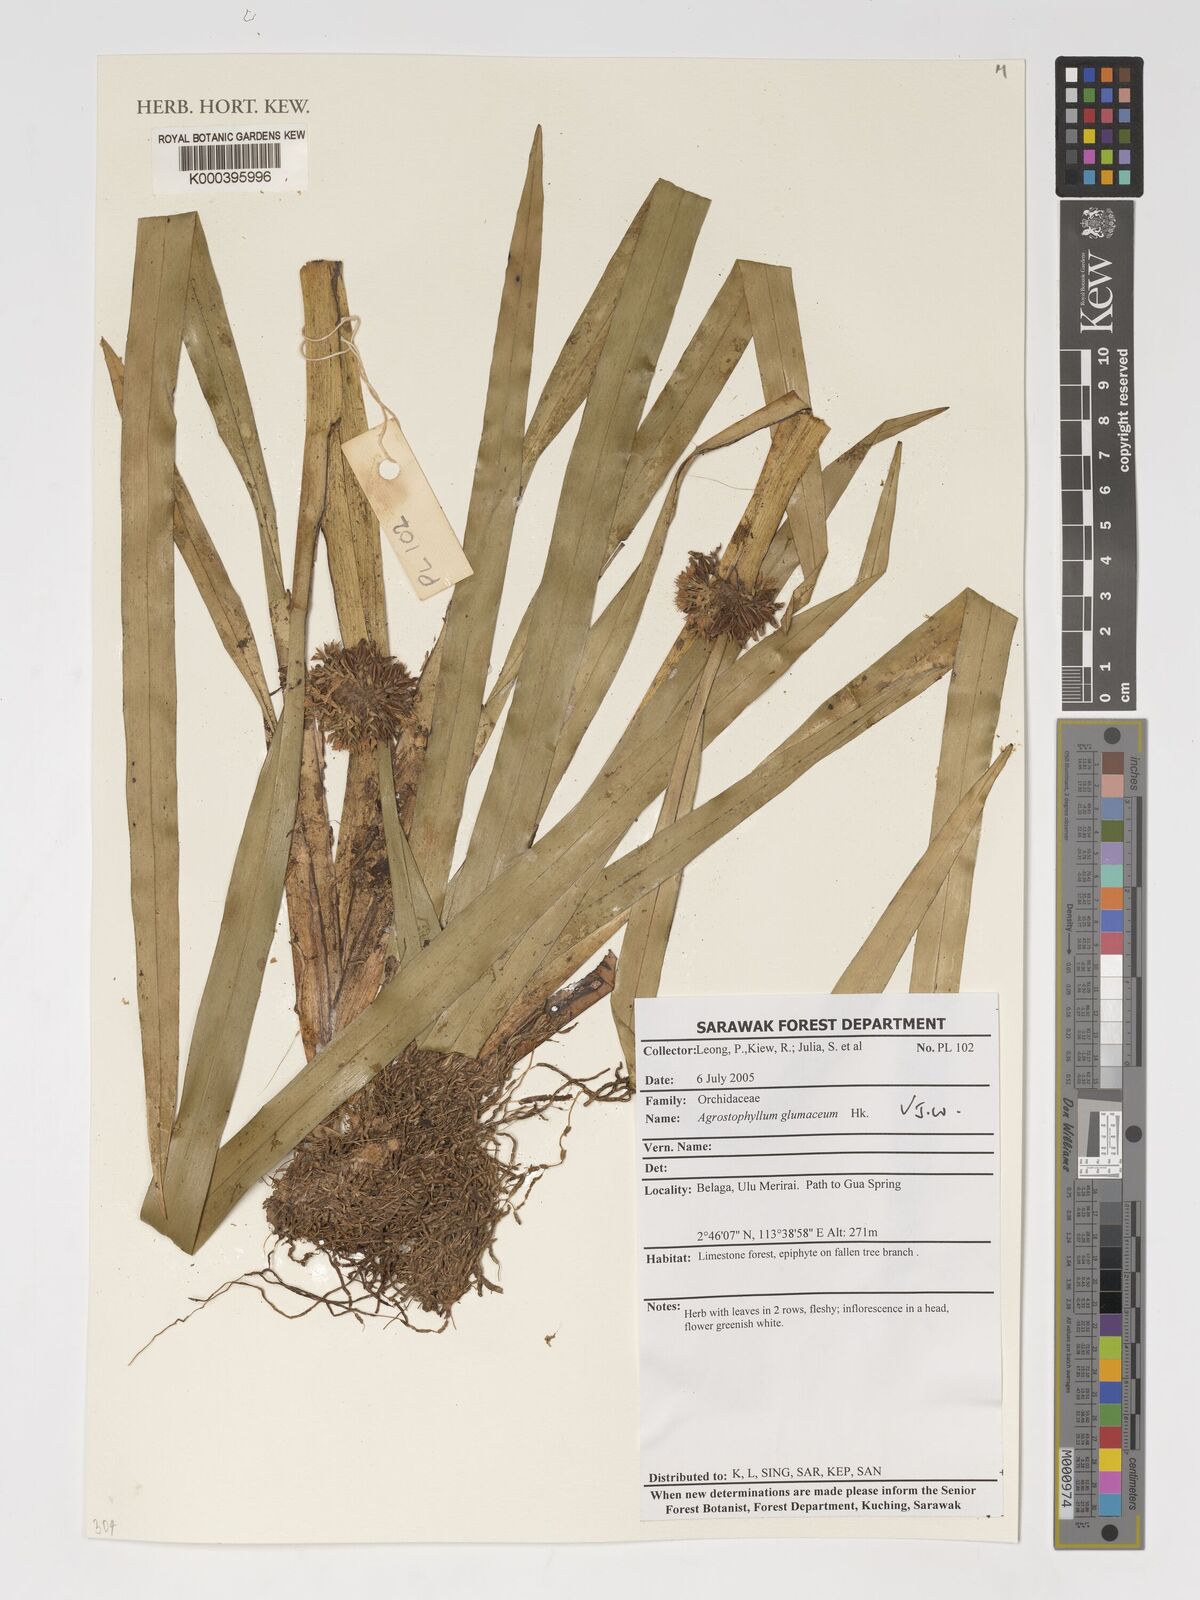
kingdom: Plantae
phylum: Tracheophyta
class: Liliopsida
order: Asparagales
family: Orchidaceae
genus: Agrostophyllum
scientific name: Agrostophyllum glumaceum
